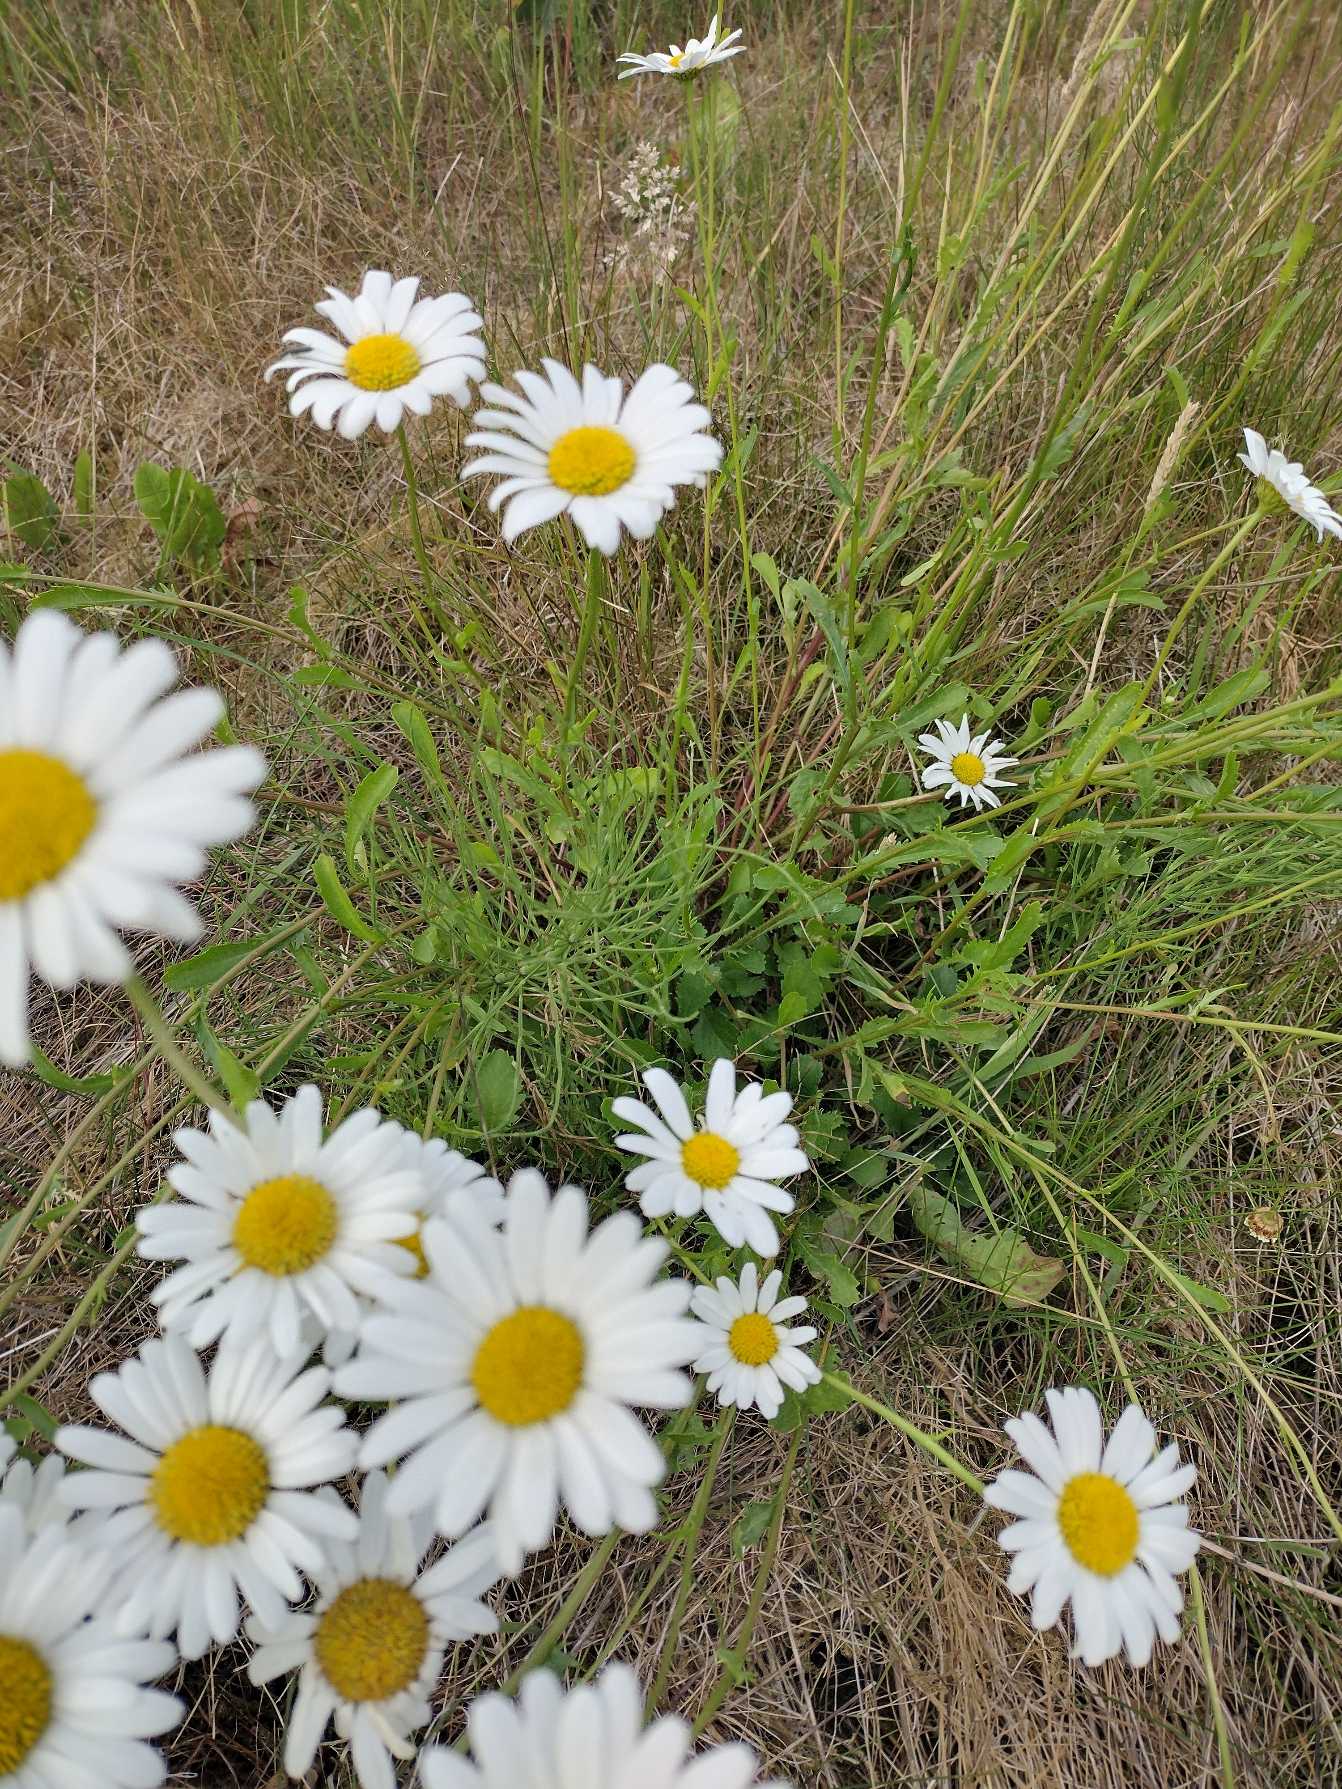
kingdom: Plantae
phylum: Tracheophyta
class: Magnoliopsida
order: Asterales
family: Asteraceae
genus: Leucanthemum
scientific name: Leucanthemum vulgare
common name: Hvid okseøje
